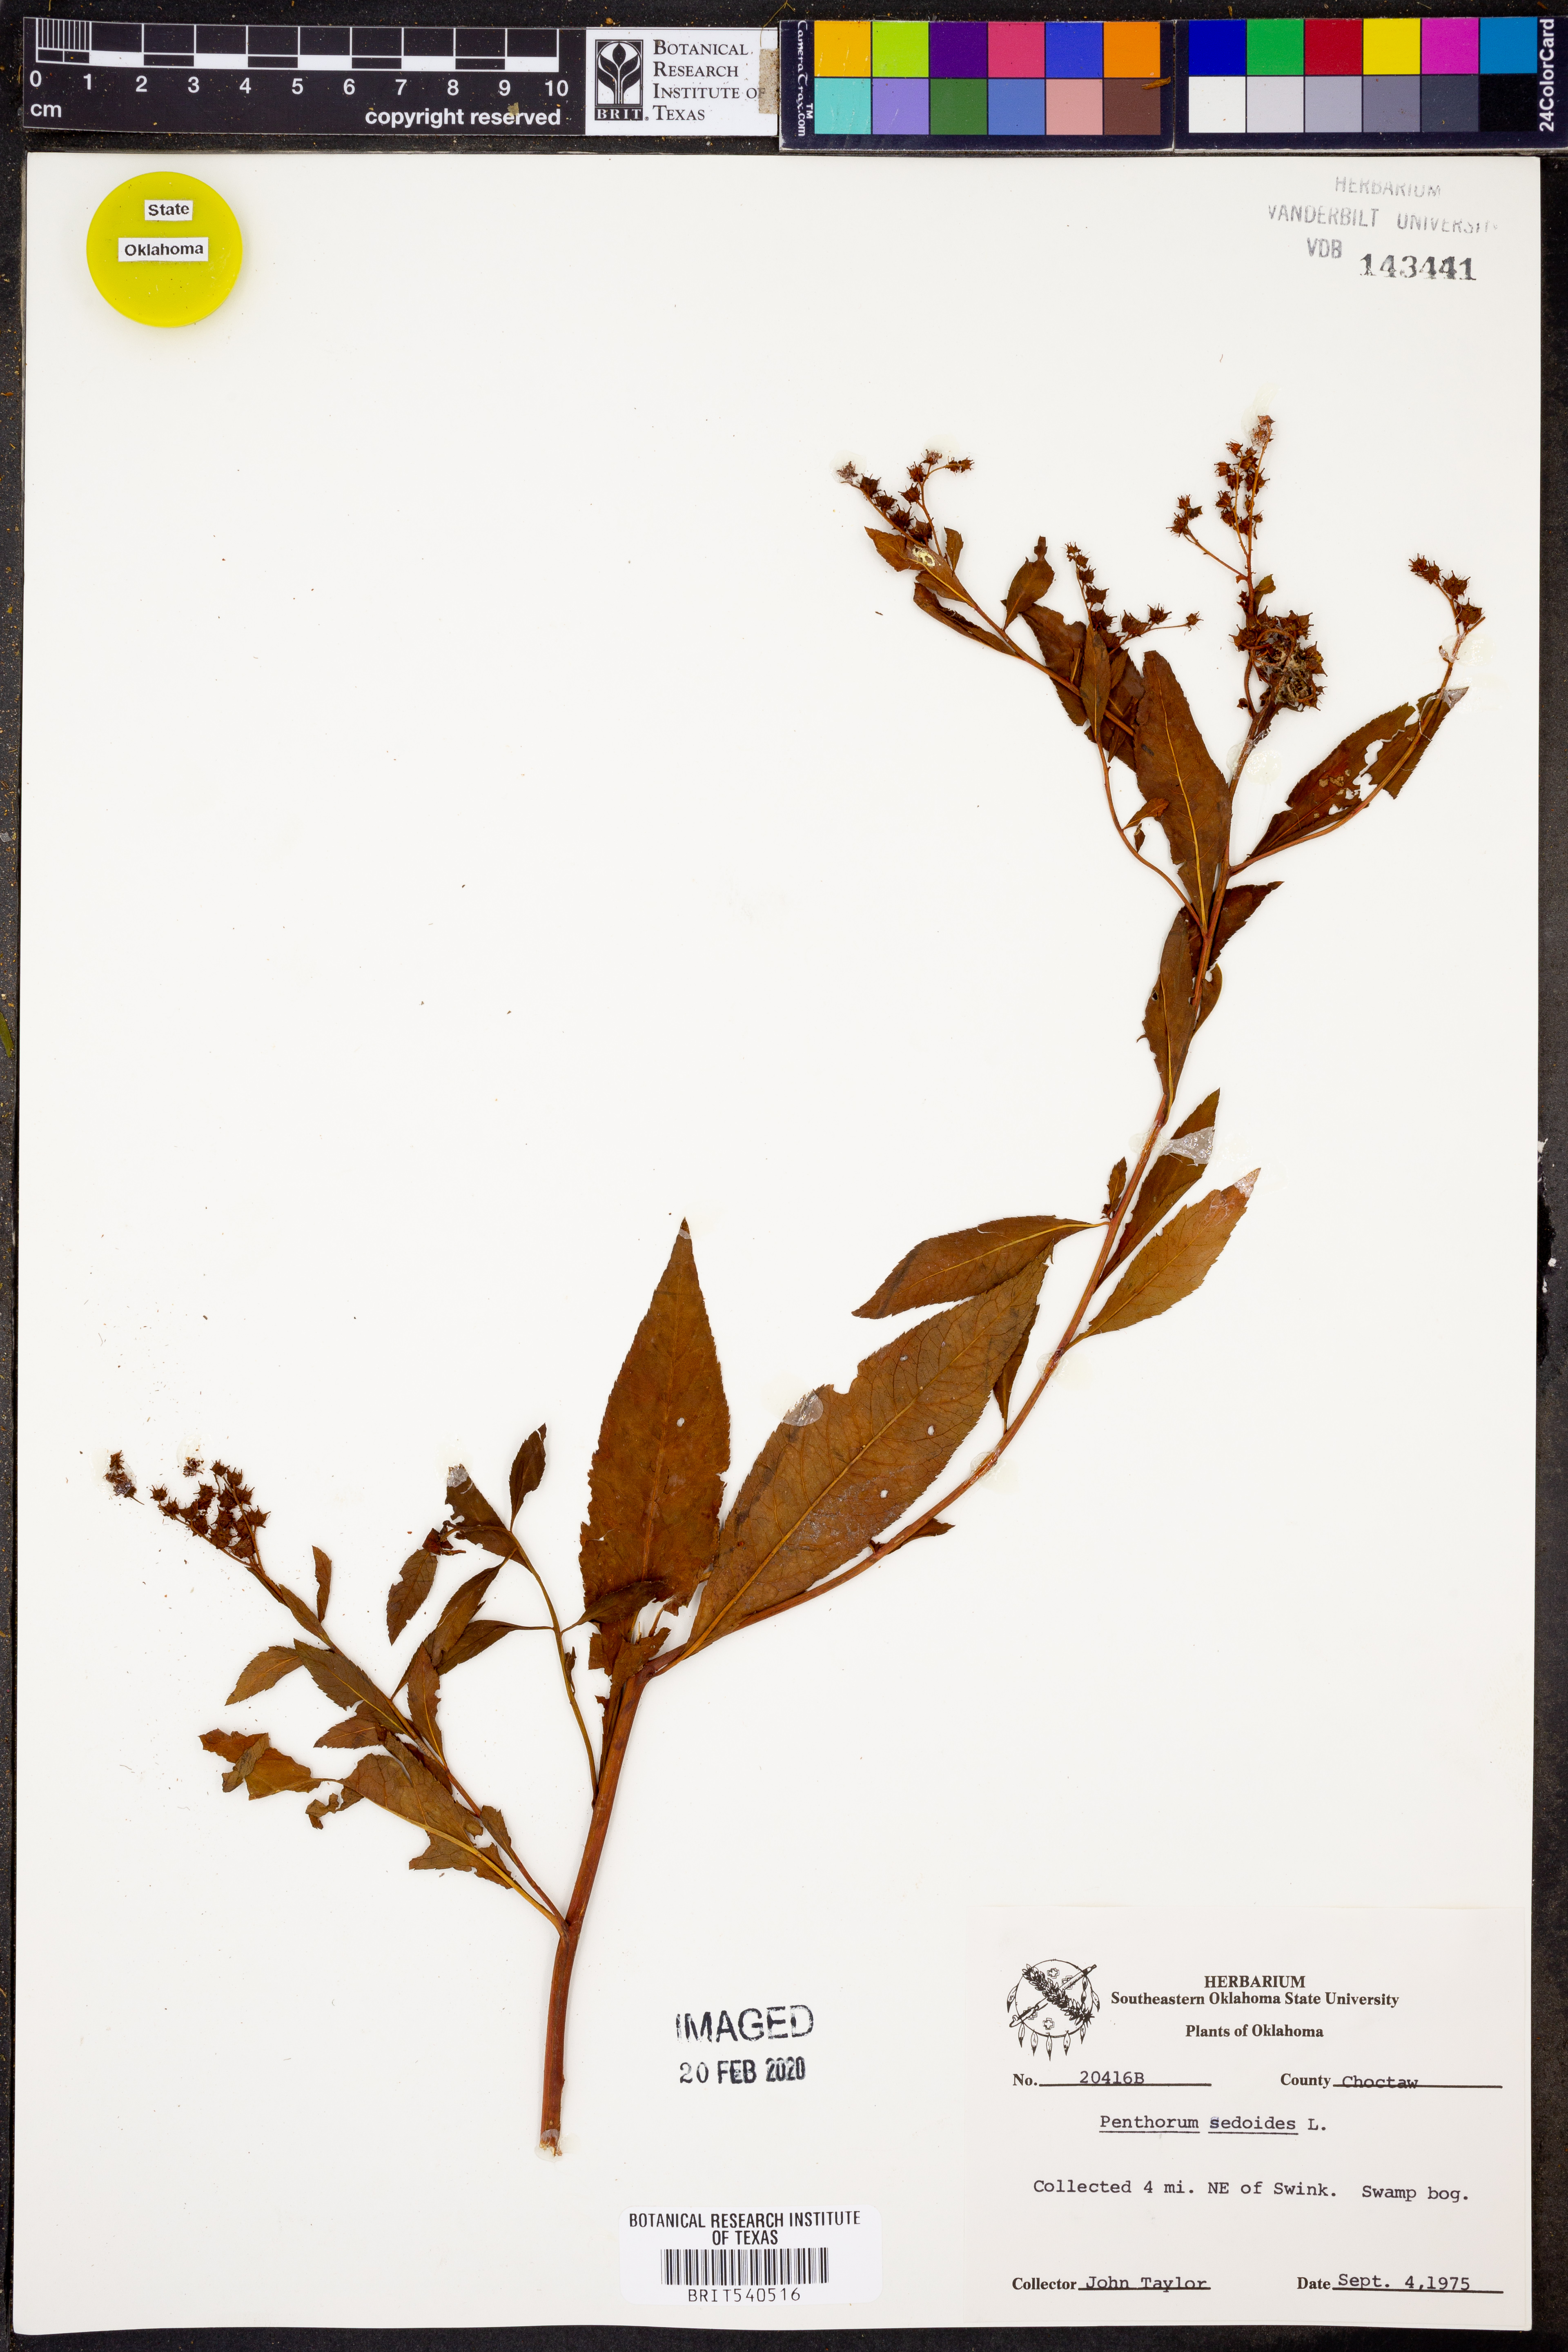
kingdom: Plantae
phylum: Tracheophyta
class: Magnoliopsida
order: Saxifragales
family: Penthoraceae
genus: Penthorum
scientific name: Penthorum sedoides
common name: Ditch stonecrop
